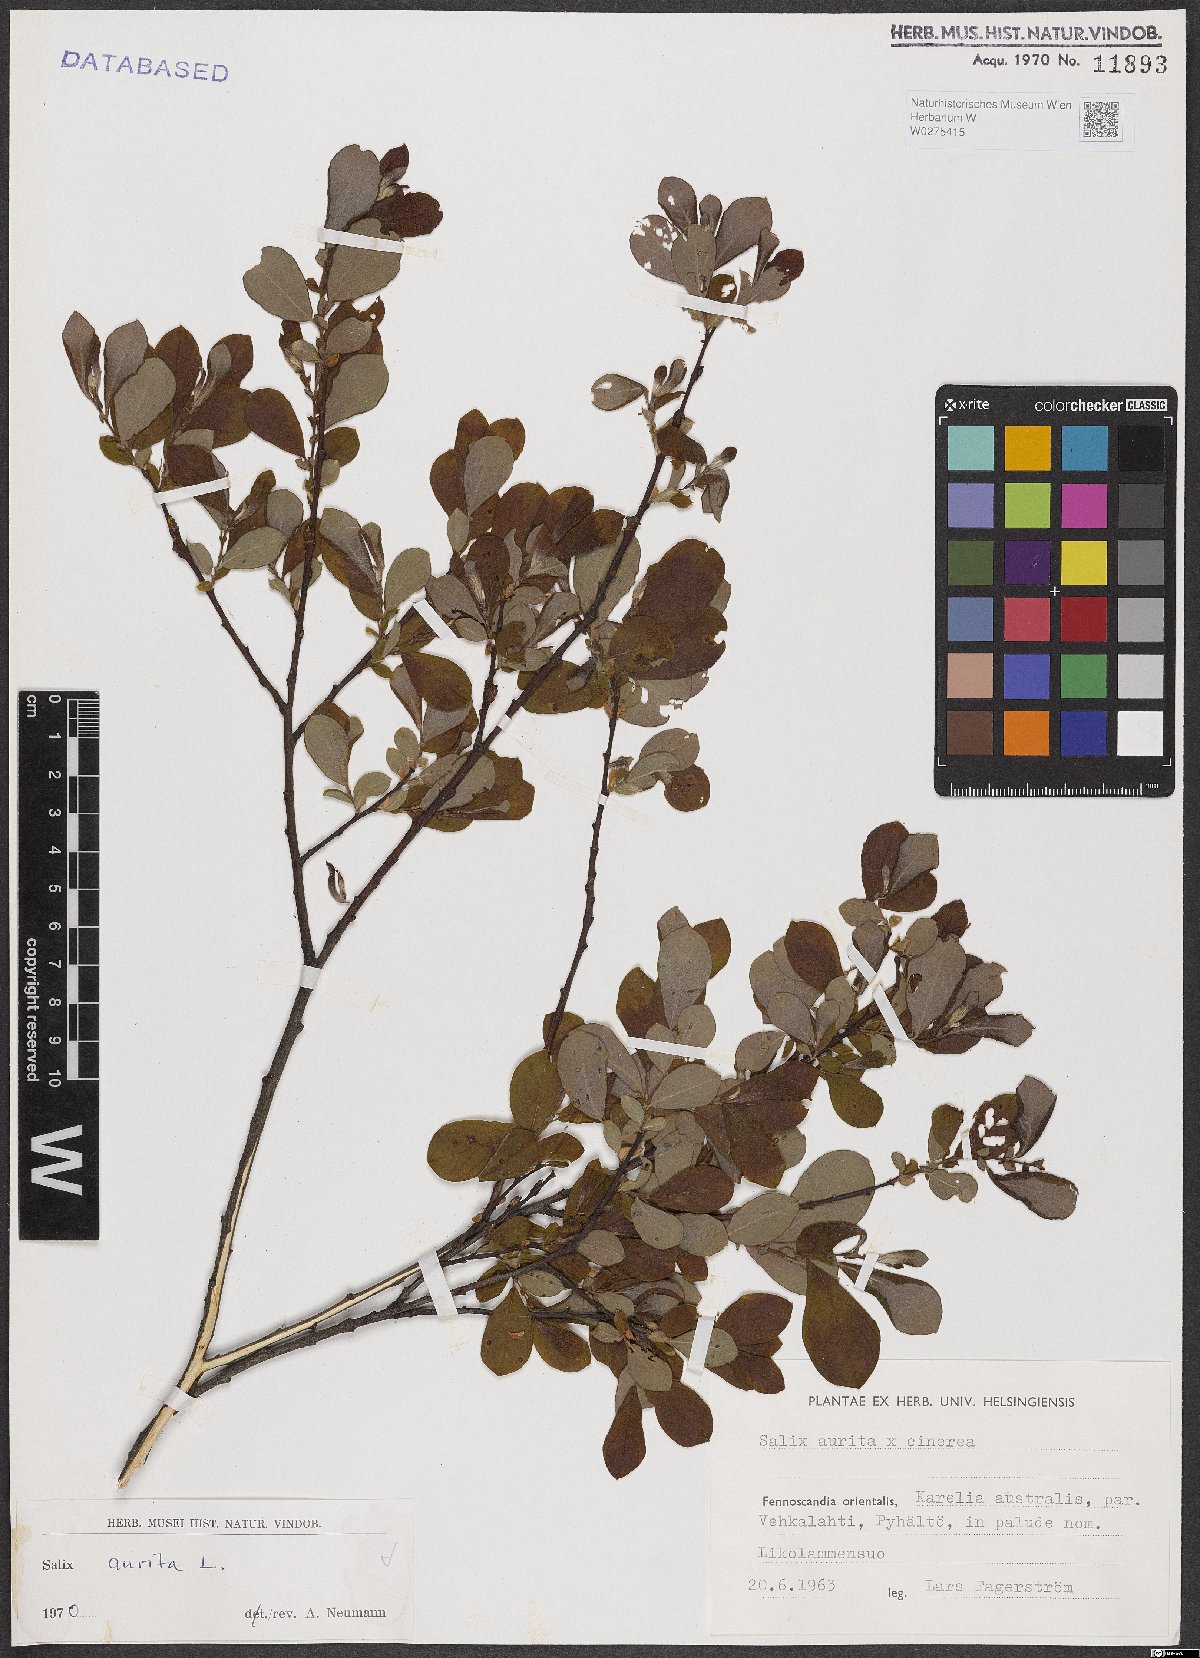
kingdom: Plantae
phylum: Tracheophyta
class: Magnoliopsida
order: Malpighiales
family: Salicaceae
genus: Salix
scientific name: Salix aurita
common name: Eared willow
